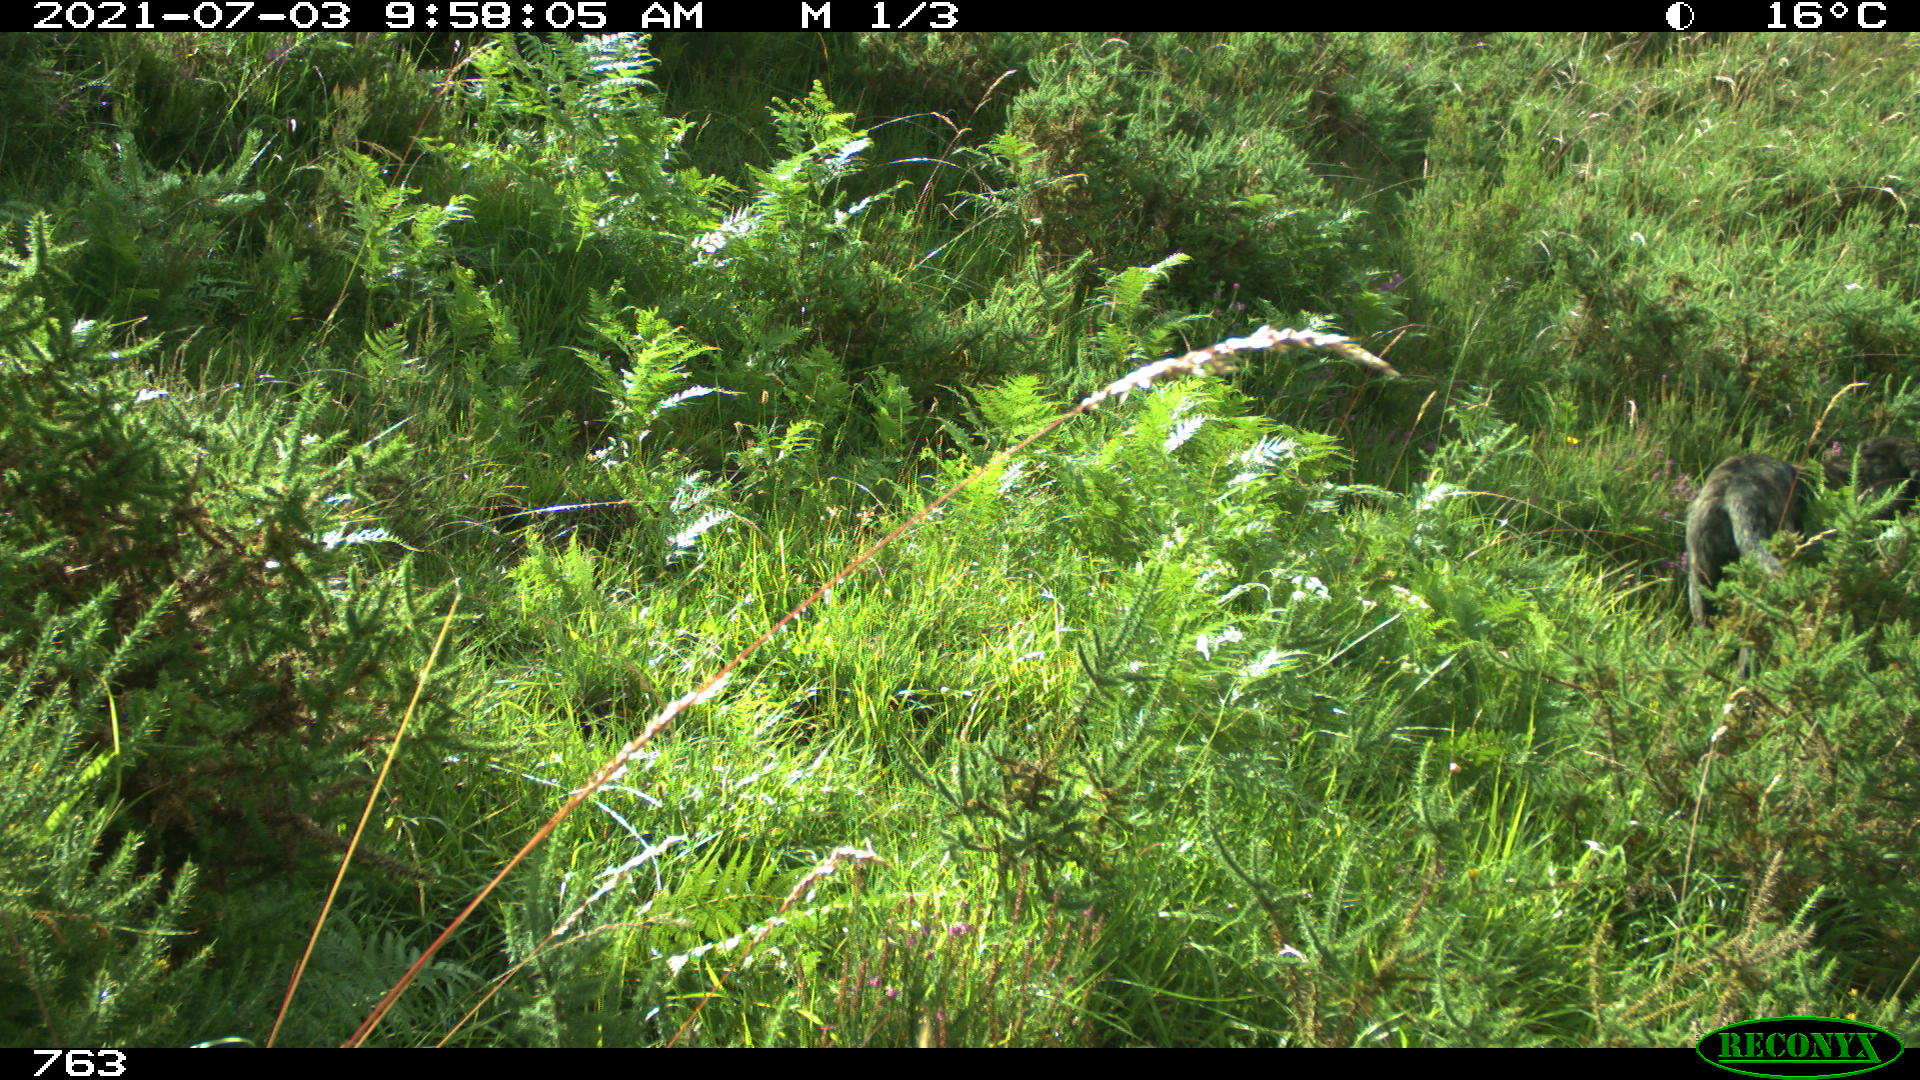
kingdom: Animalia
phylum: Chordata
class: Mammalia
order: Carnivora
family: Canidae
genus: Canis
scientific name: Canis lupus
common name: Gray wolf
